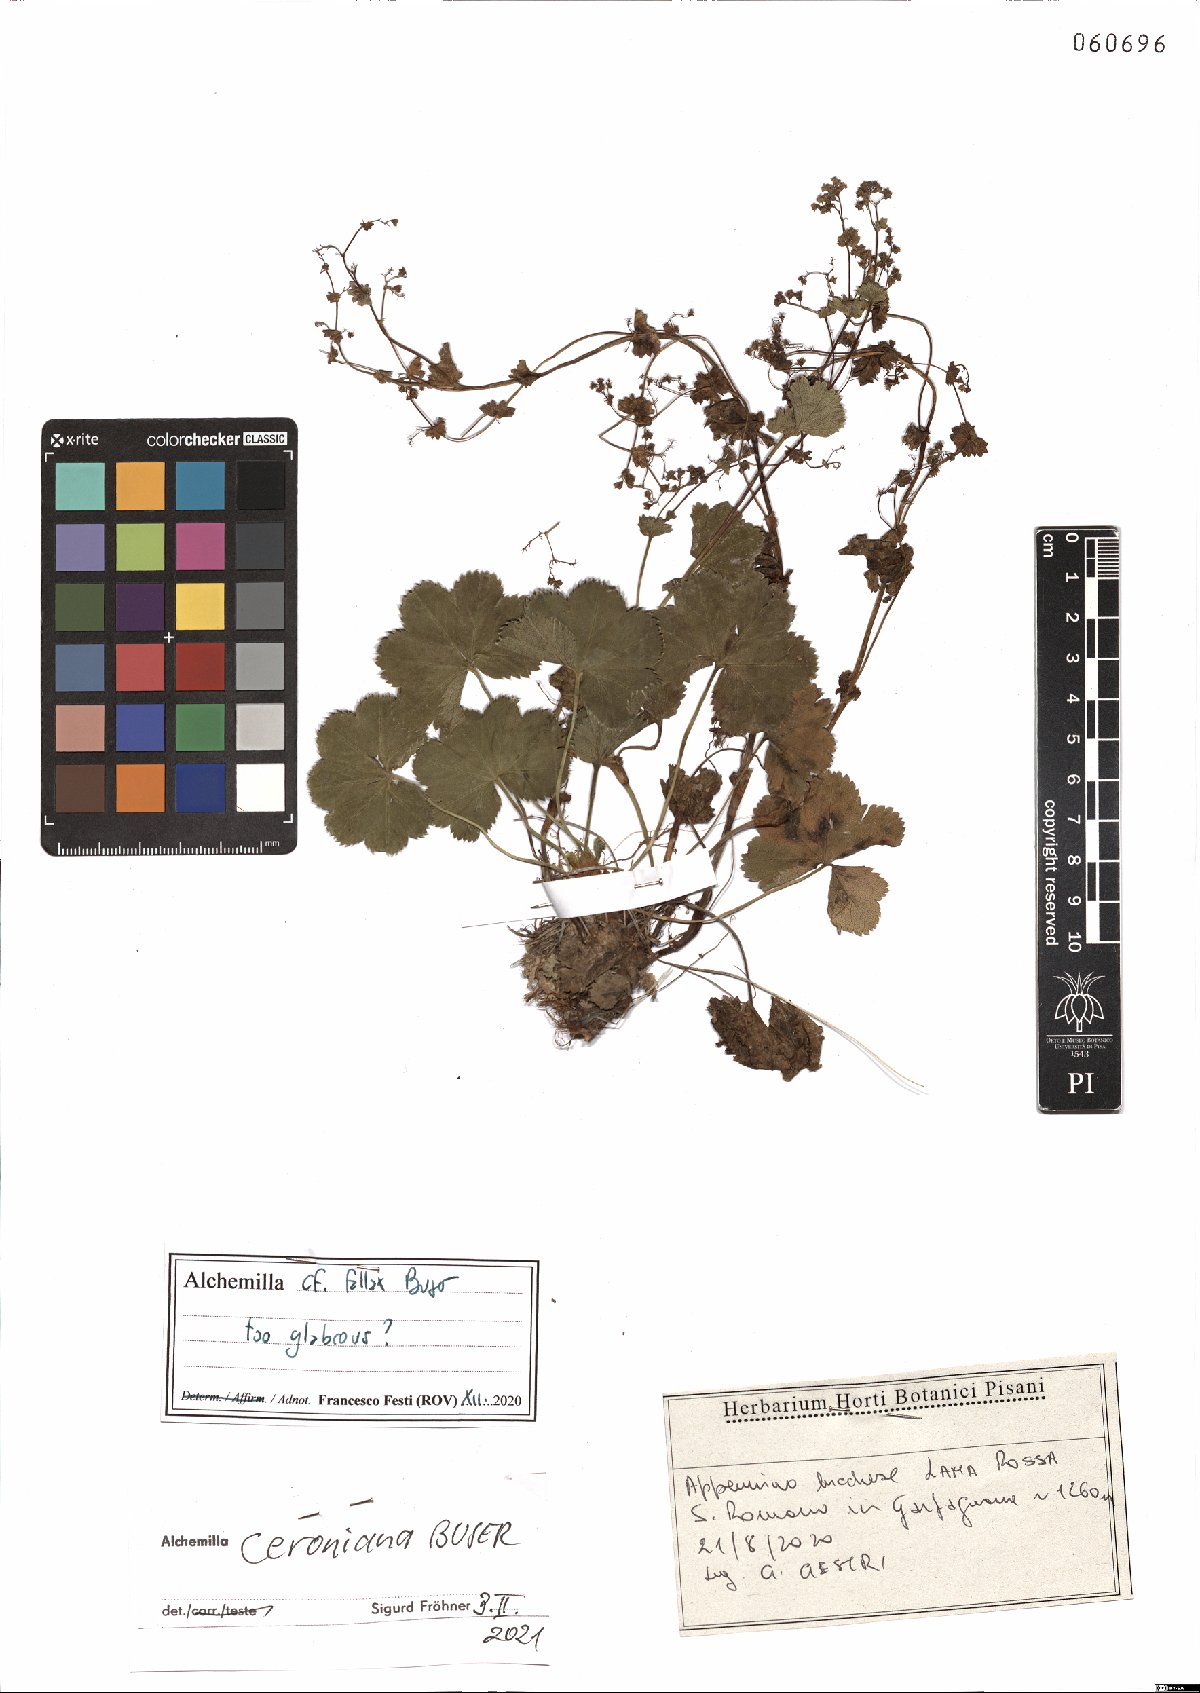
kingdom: Plantae
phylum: Tracheophyta
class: Magnoliopsida
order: Rosales
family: Rosaceae
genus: Alchemilla
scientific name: Alchemilla ceroniana
